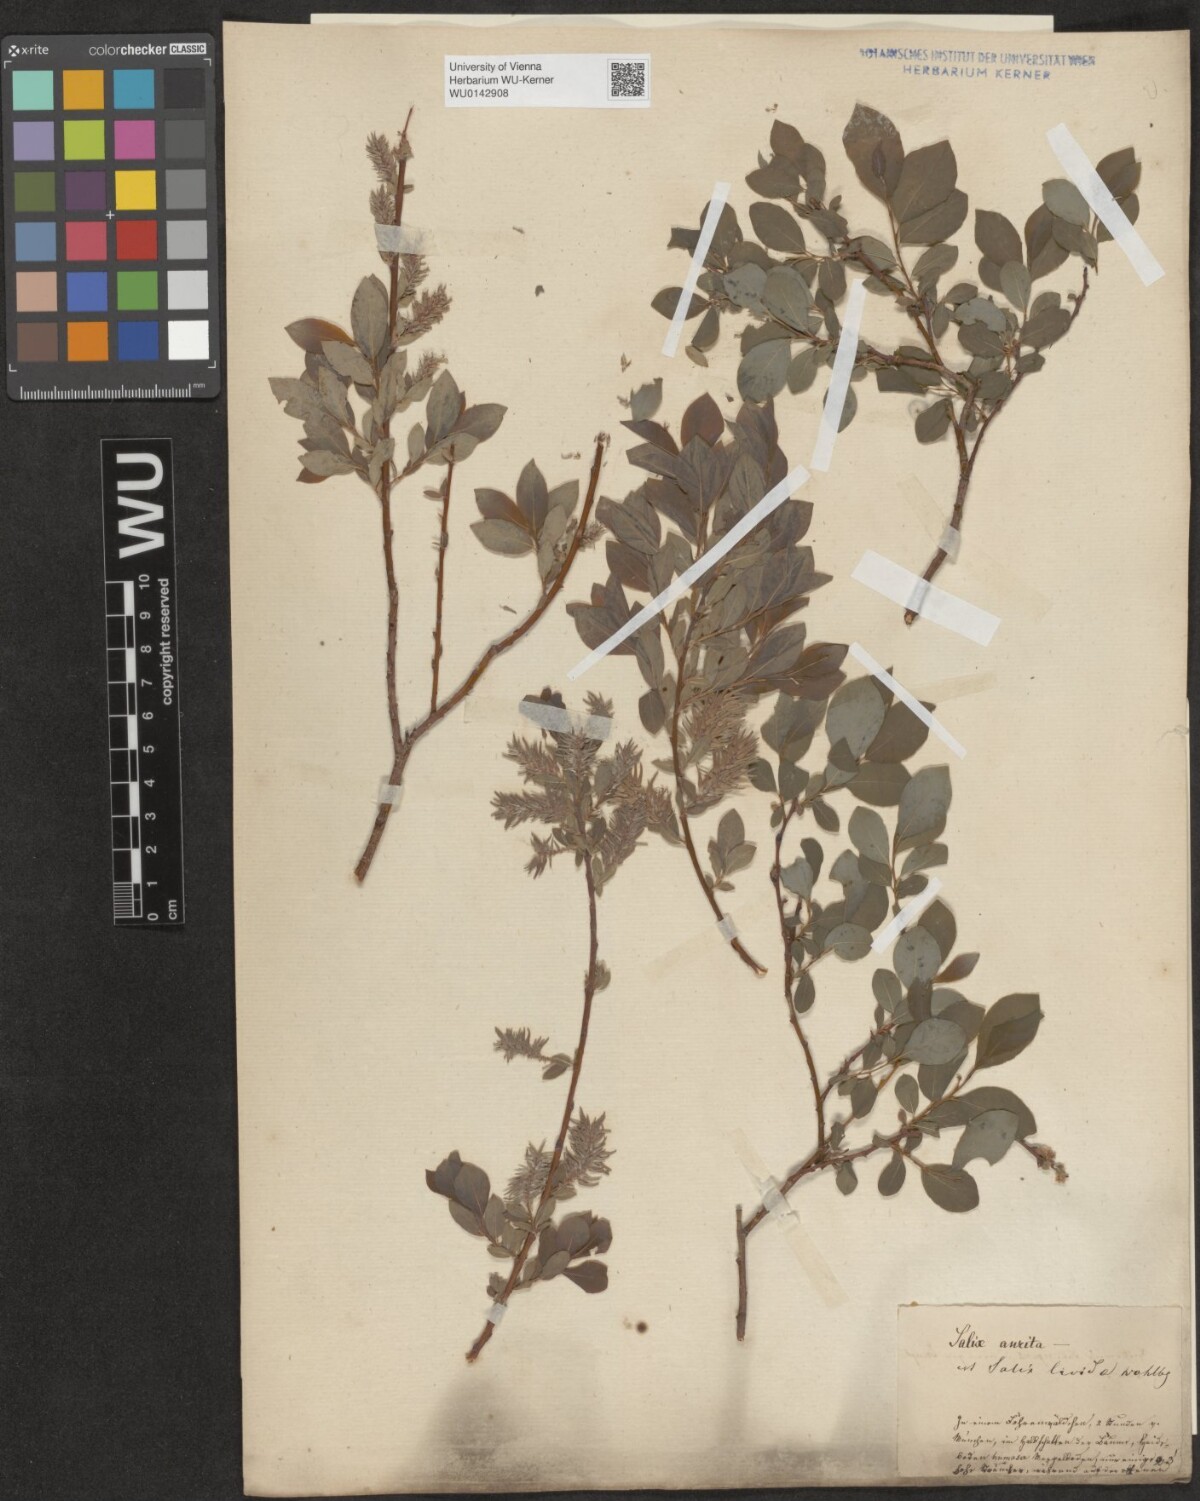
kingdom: Plantae
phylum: Tracheophyta
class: Magnoliopsida
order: Malpighiales
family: Salicaceae
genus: Salix
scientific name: Salix starkeana
